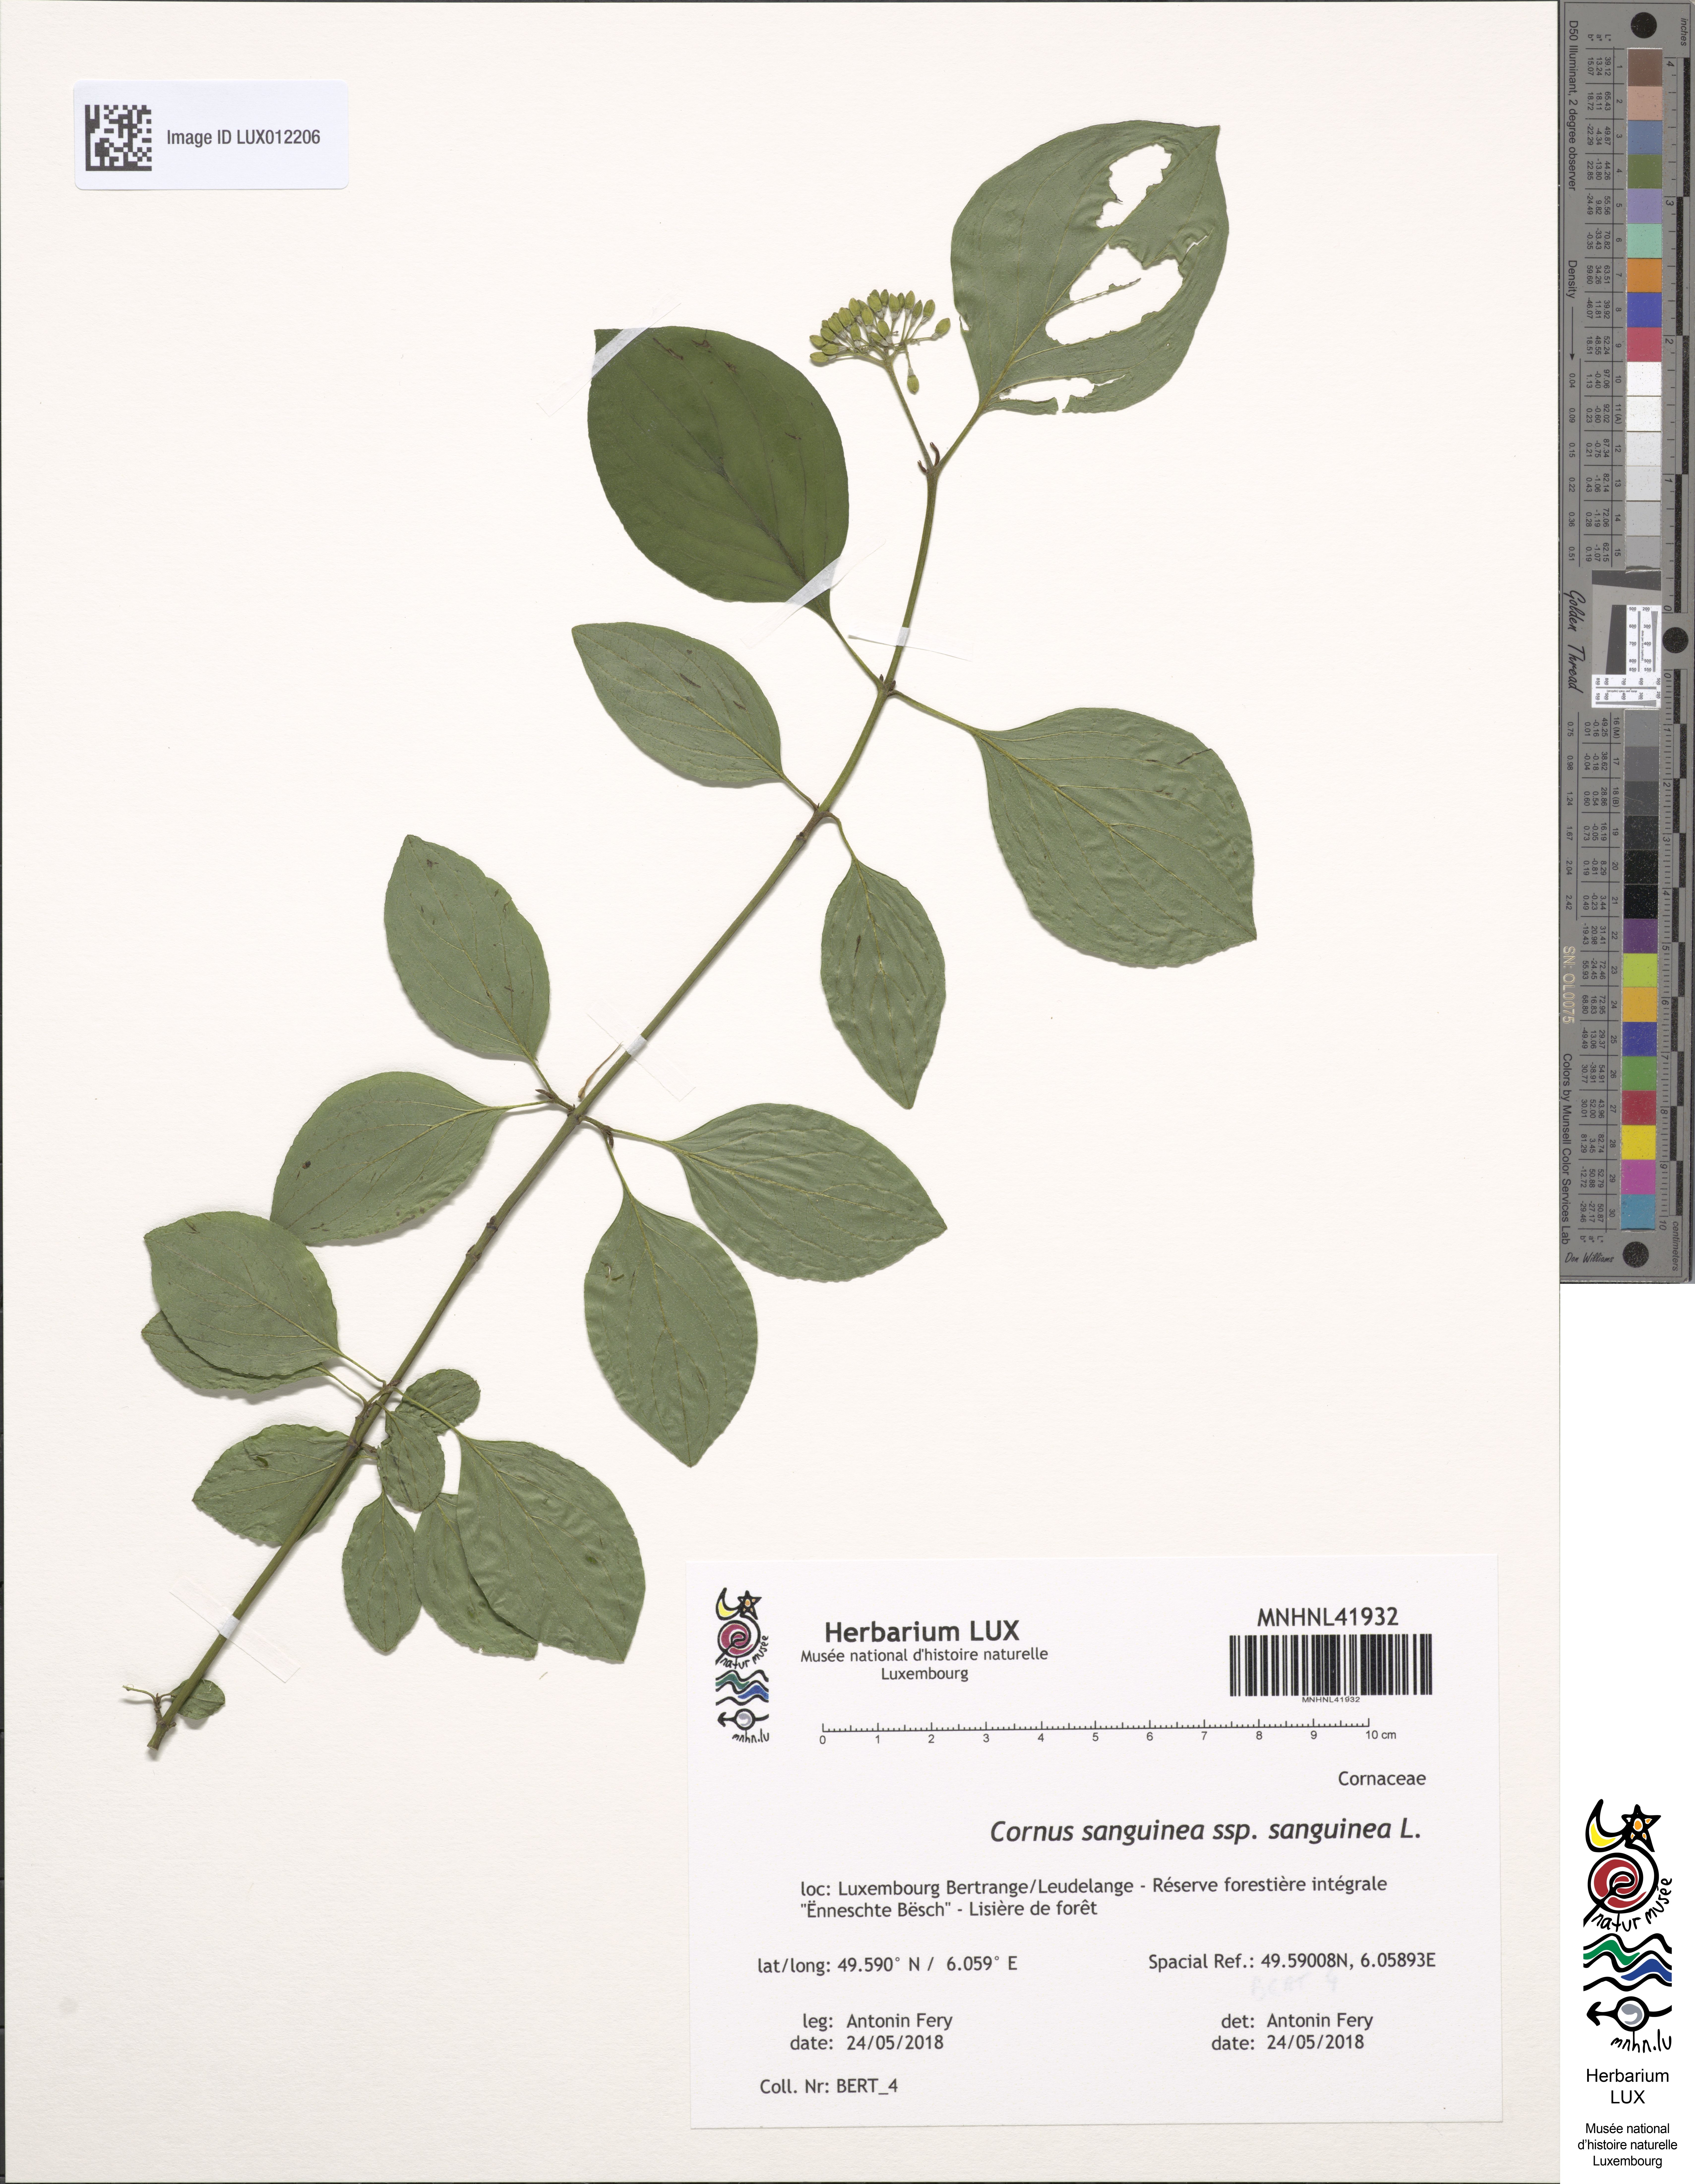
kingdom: Plantae
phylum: Tracheophyta
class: Magnoliopsida
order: Cornales
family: Cornaceae
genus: Cornus
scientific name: Cornus sanguinea
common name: Dogwood
